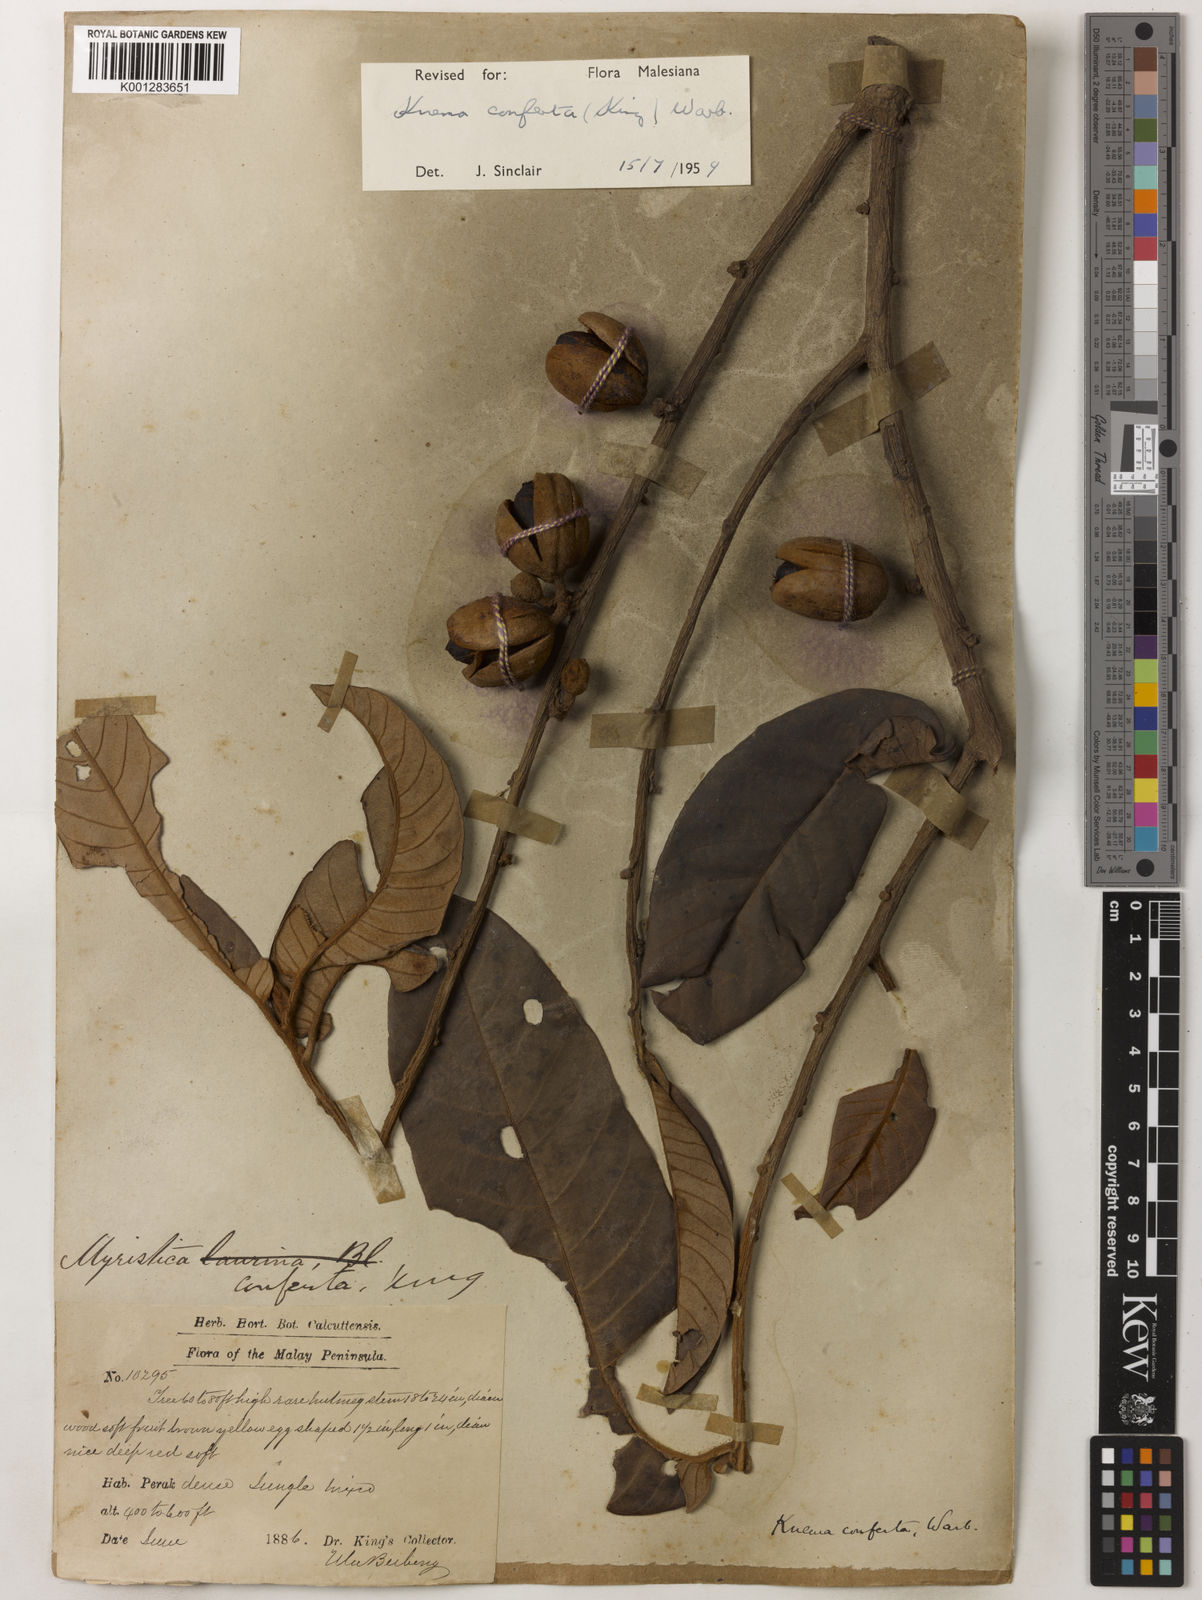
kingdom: Plantae
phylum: Tracheophyta
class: Magnoliopsida
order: Magnoliales
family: Myristicaceae
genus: Knema
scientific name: Knema conferta
